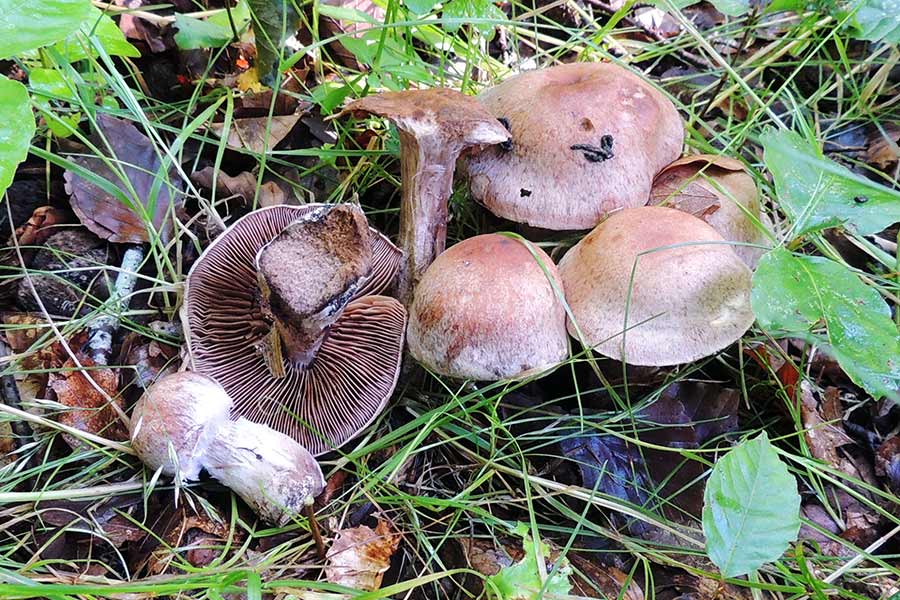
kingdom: Fungi
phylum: Basidiomycota
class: Agaricomycetes
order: Agaricales
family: Cortinariaceae
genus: Cortinarius
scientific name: Cortinarius
